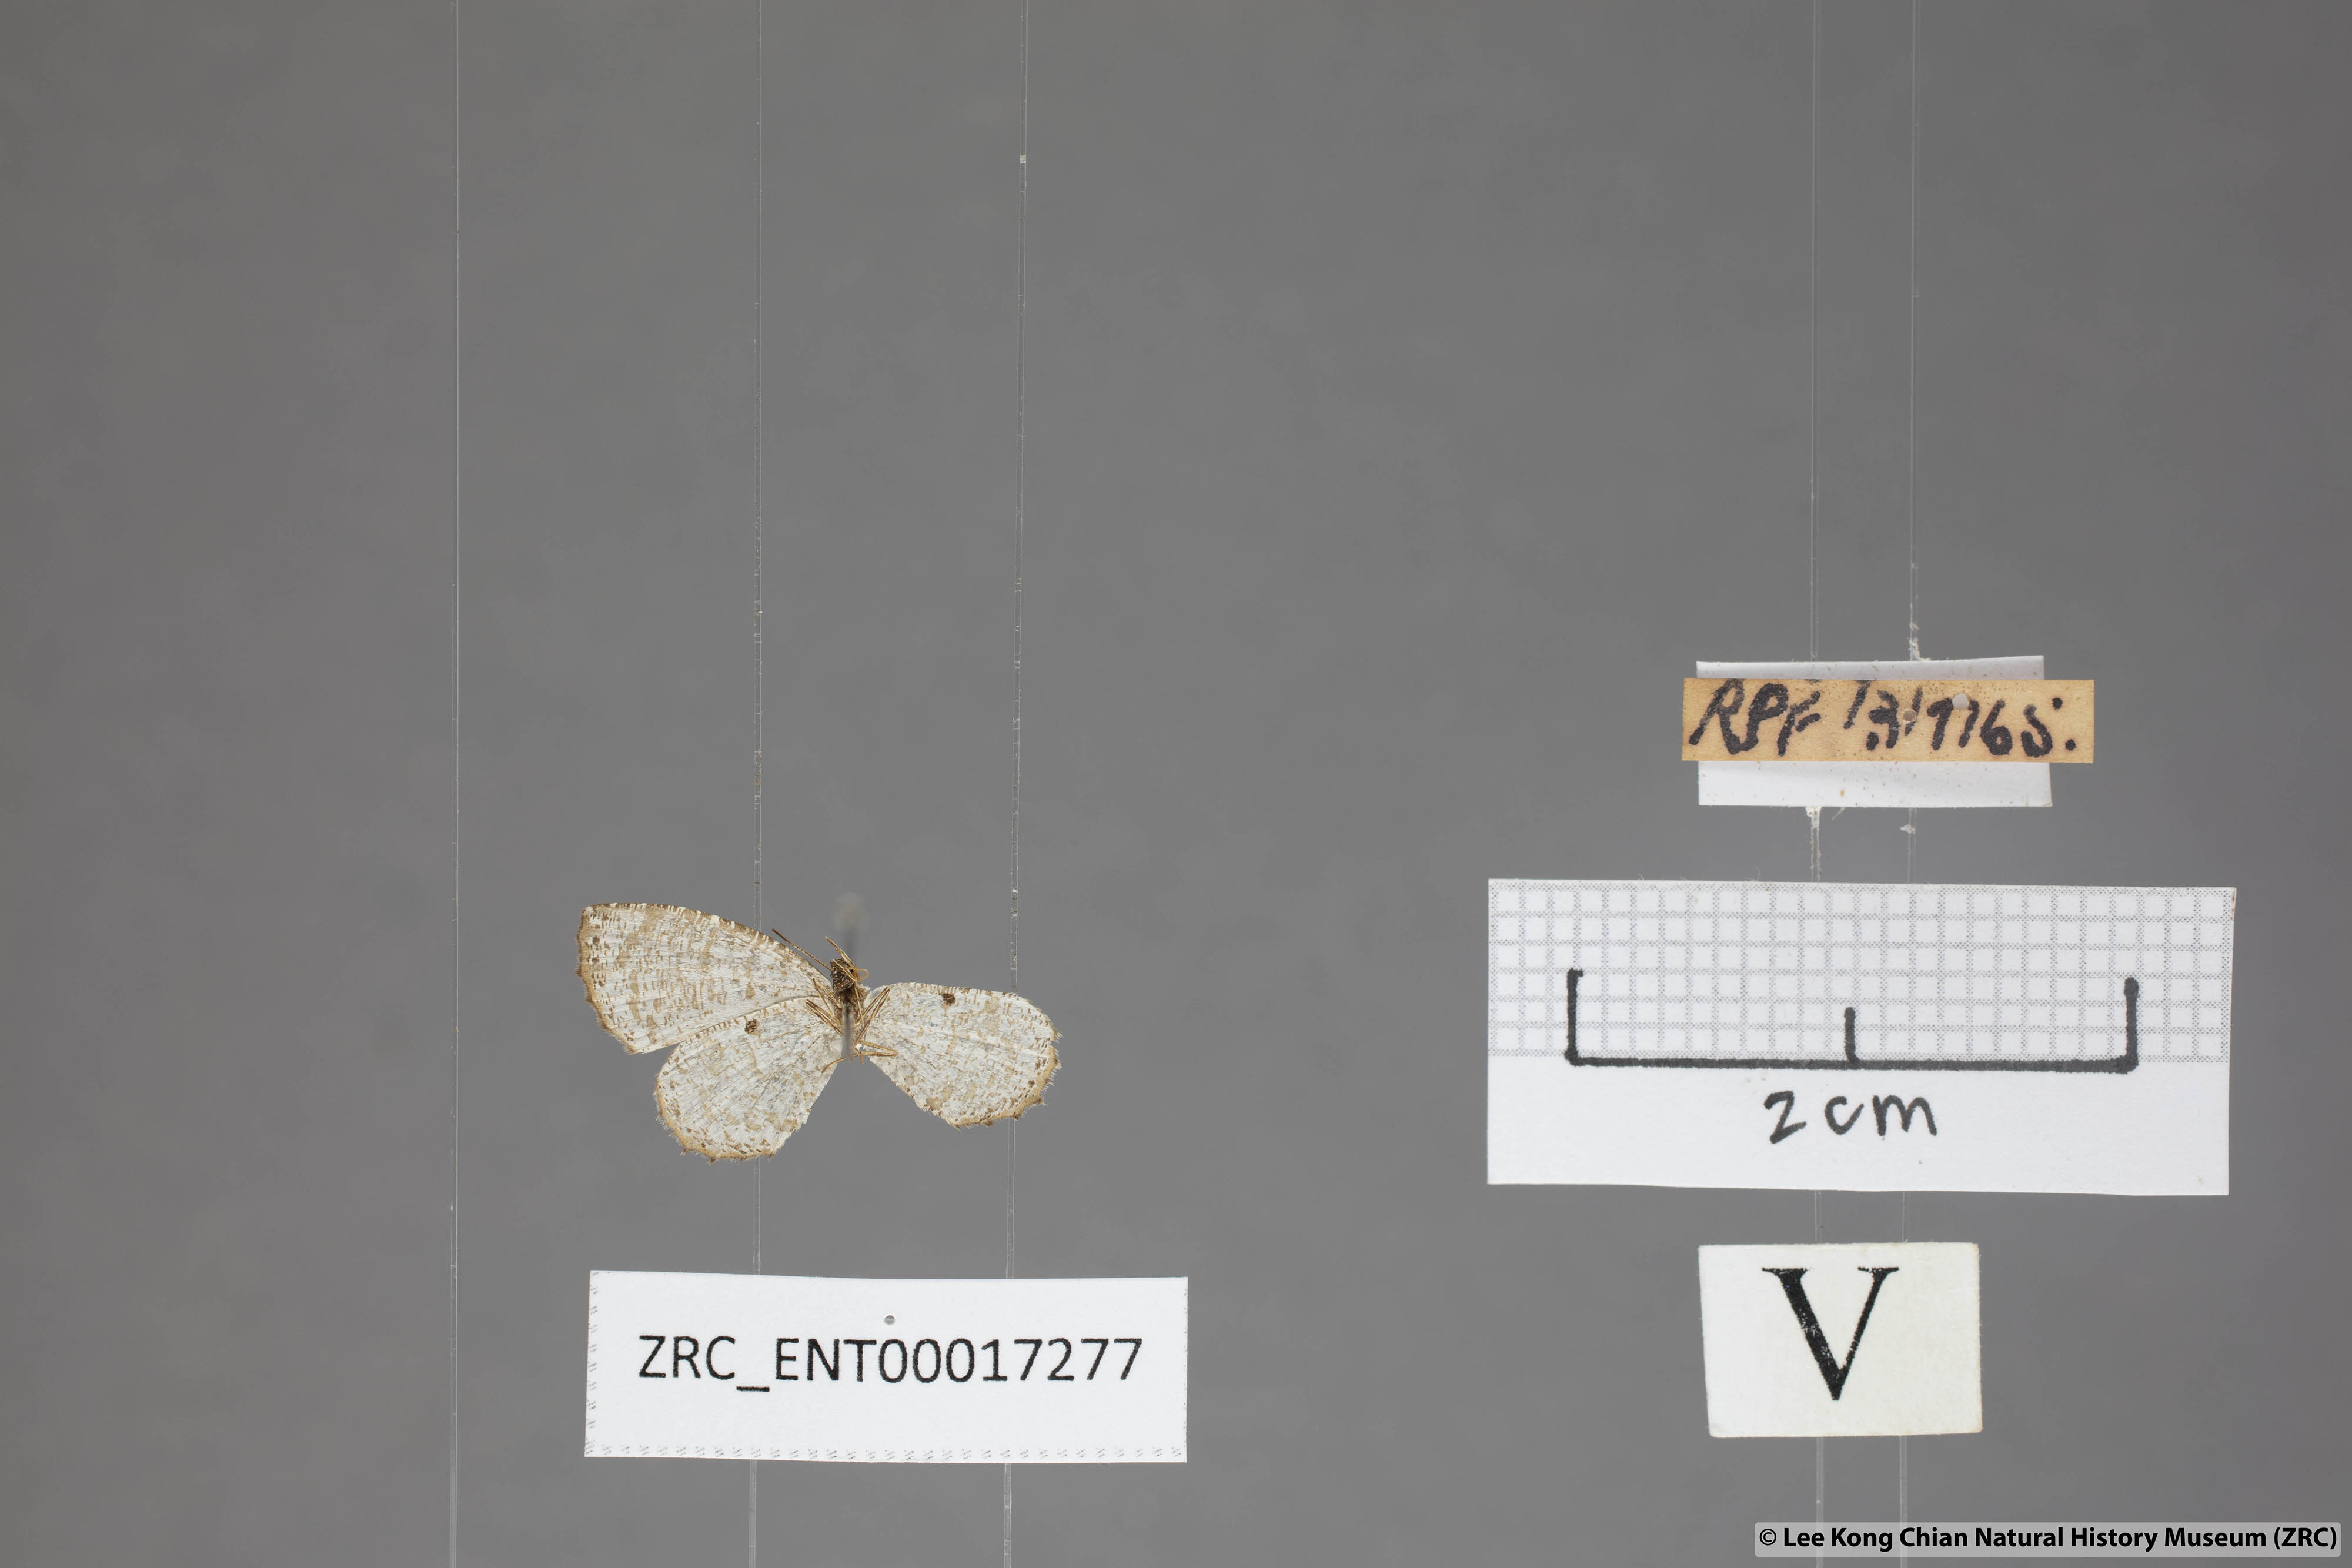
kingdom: Animalia
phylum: Arthropoda
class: Insecta
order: Lepidoptera
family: Lycaenidae
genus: Allotinus
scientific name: Allotinus substrigosa
